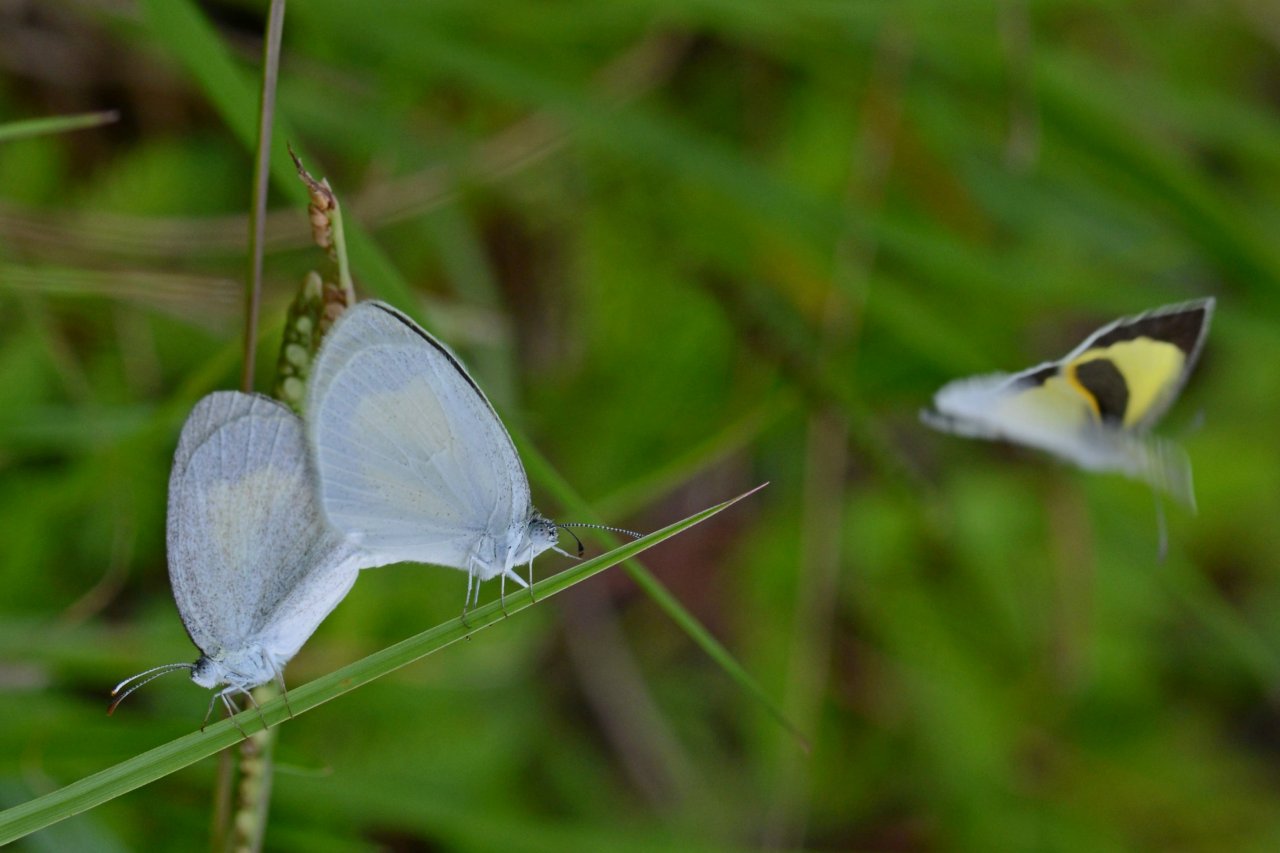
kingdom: Animalia
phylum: Arthropoda
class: Insecta
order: Lepidoptera
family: Pieridae
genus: Eurema
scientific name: Eurema daira
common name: Barred Yellow
